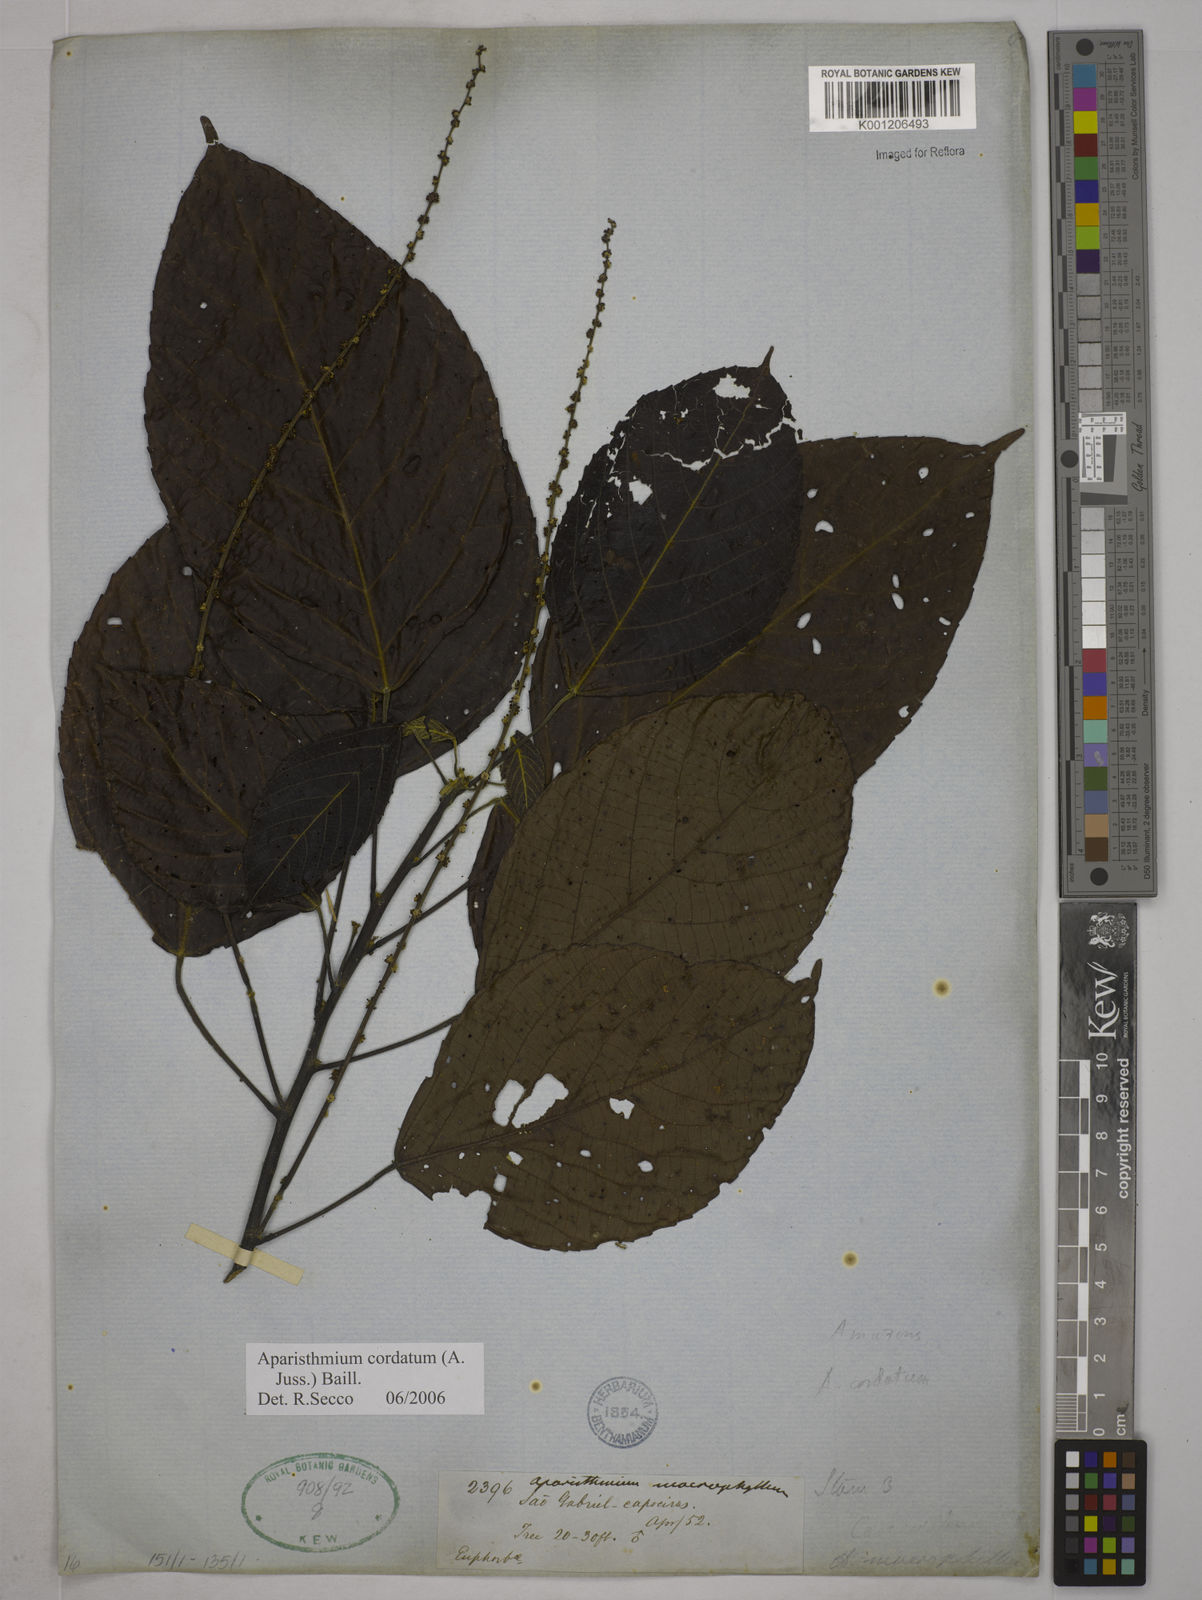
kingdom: Plantae
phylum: Tracheophyta
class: Magnoliopsida
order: Malpighiales
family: Euphorbiaceae
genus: Aparisthmium
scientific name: Aparisthmium cordatum
